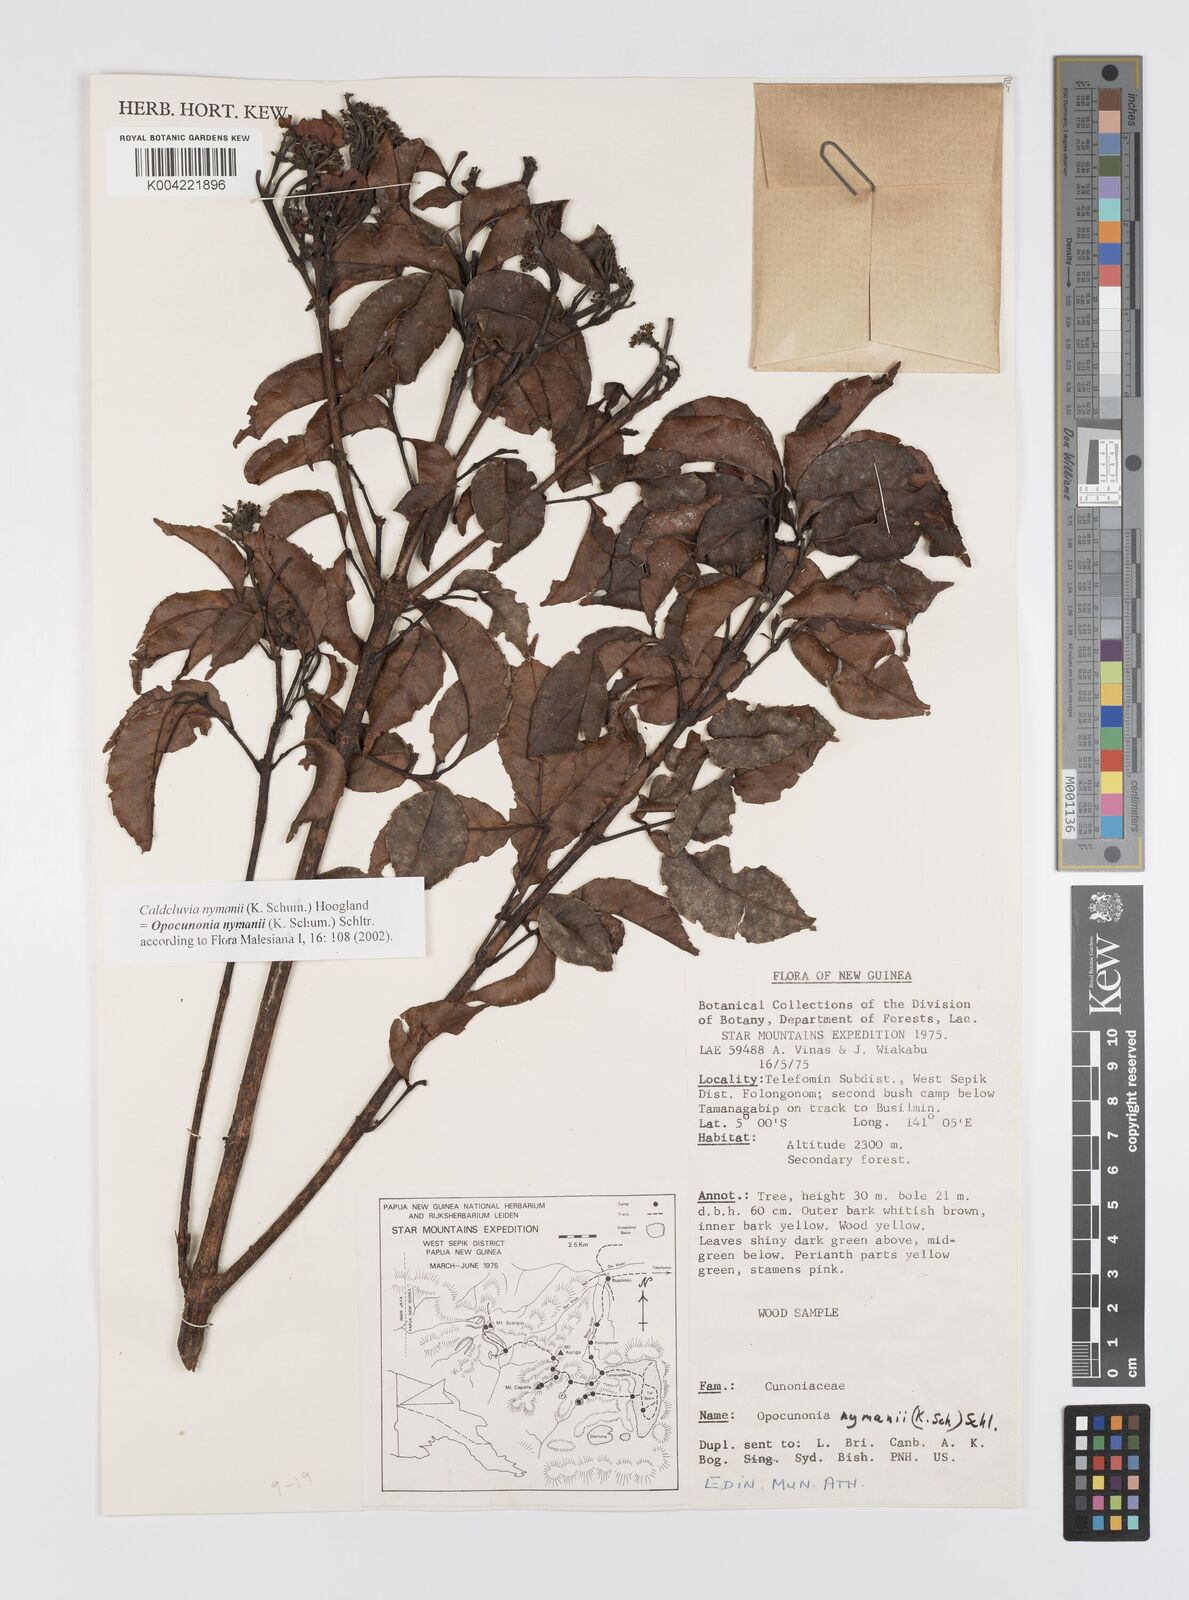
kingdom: Plantae
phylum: Tracheophyta
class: Magnoliopsida
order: Oxalidales
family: Cunoniaceae
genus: Opocunonia
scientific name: Opocunonia nymanii
